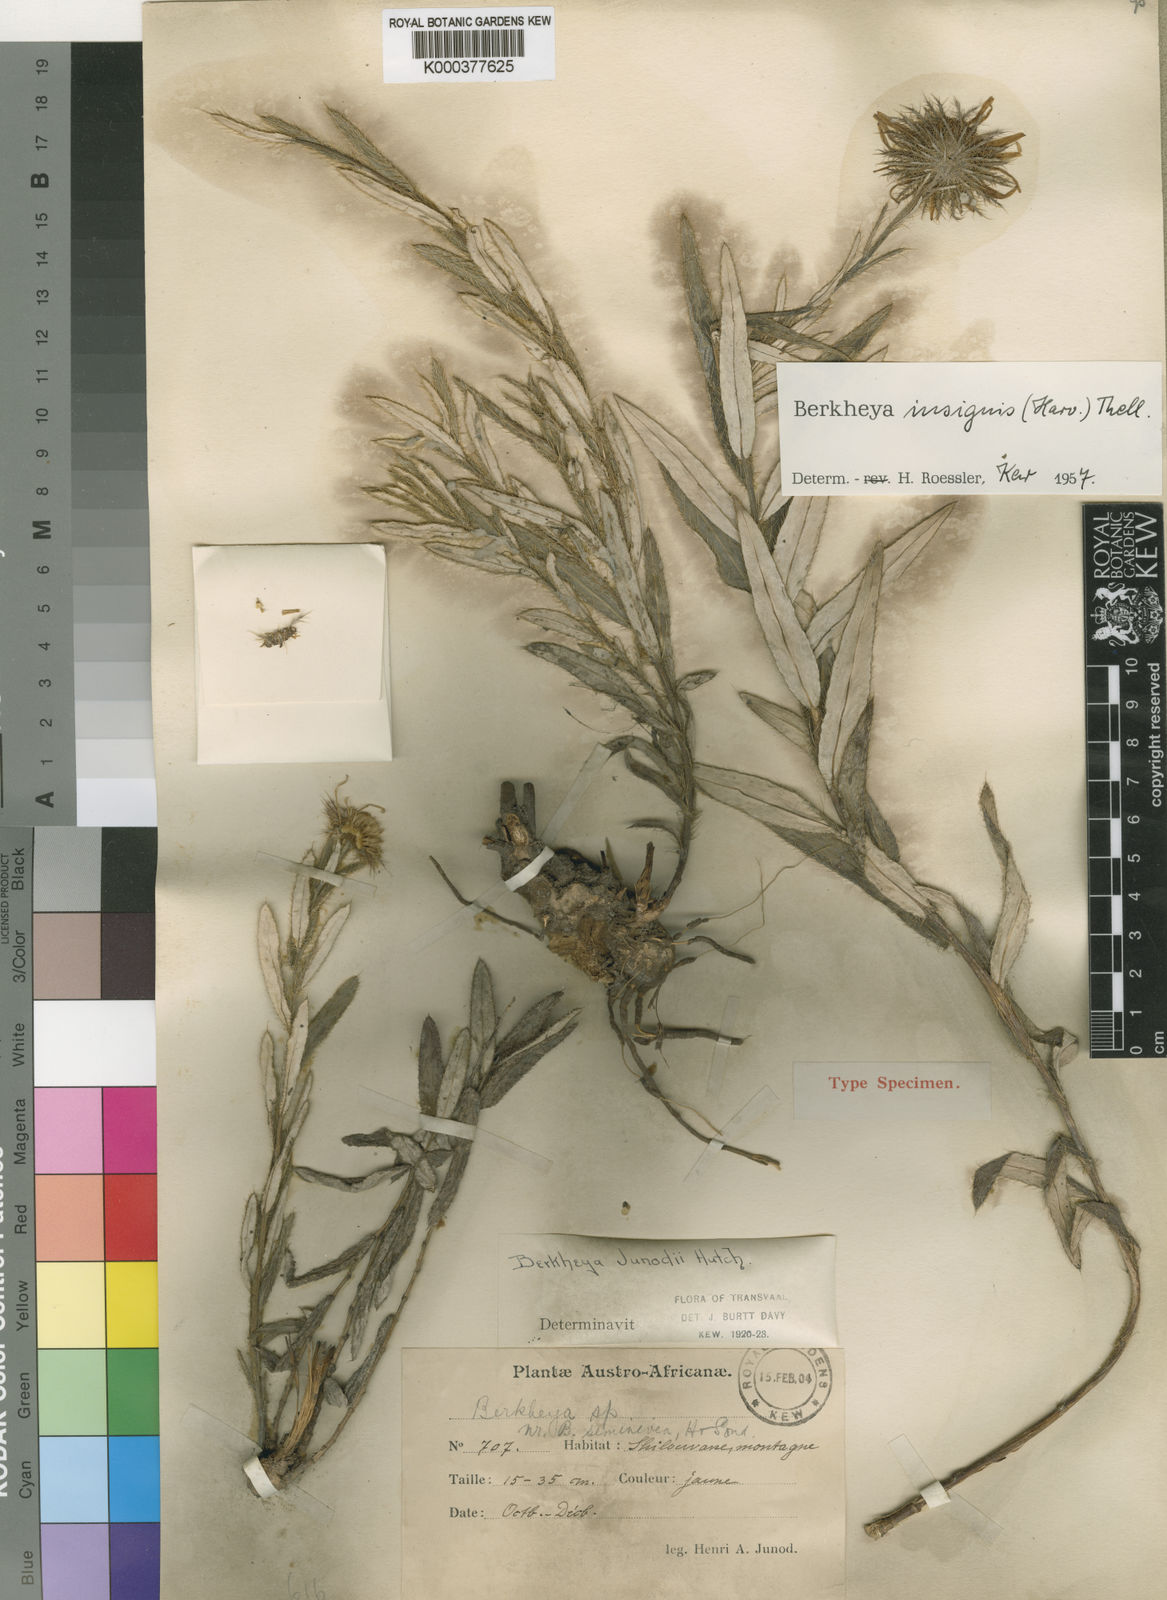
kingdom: Plantae
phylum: Tracheophyta
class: Magnoliopsida
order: Asterales
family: Asteraceae
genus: Berkheya
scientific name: Berkheya insignis
